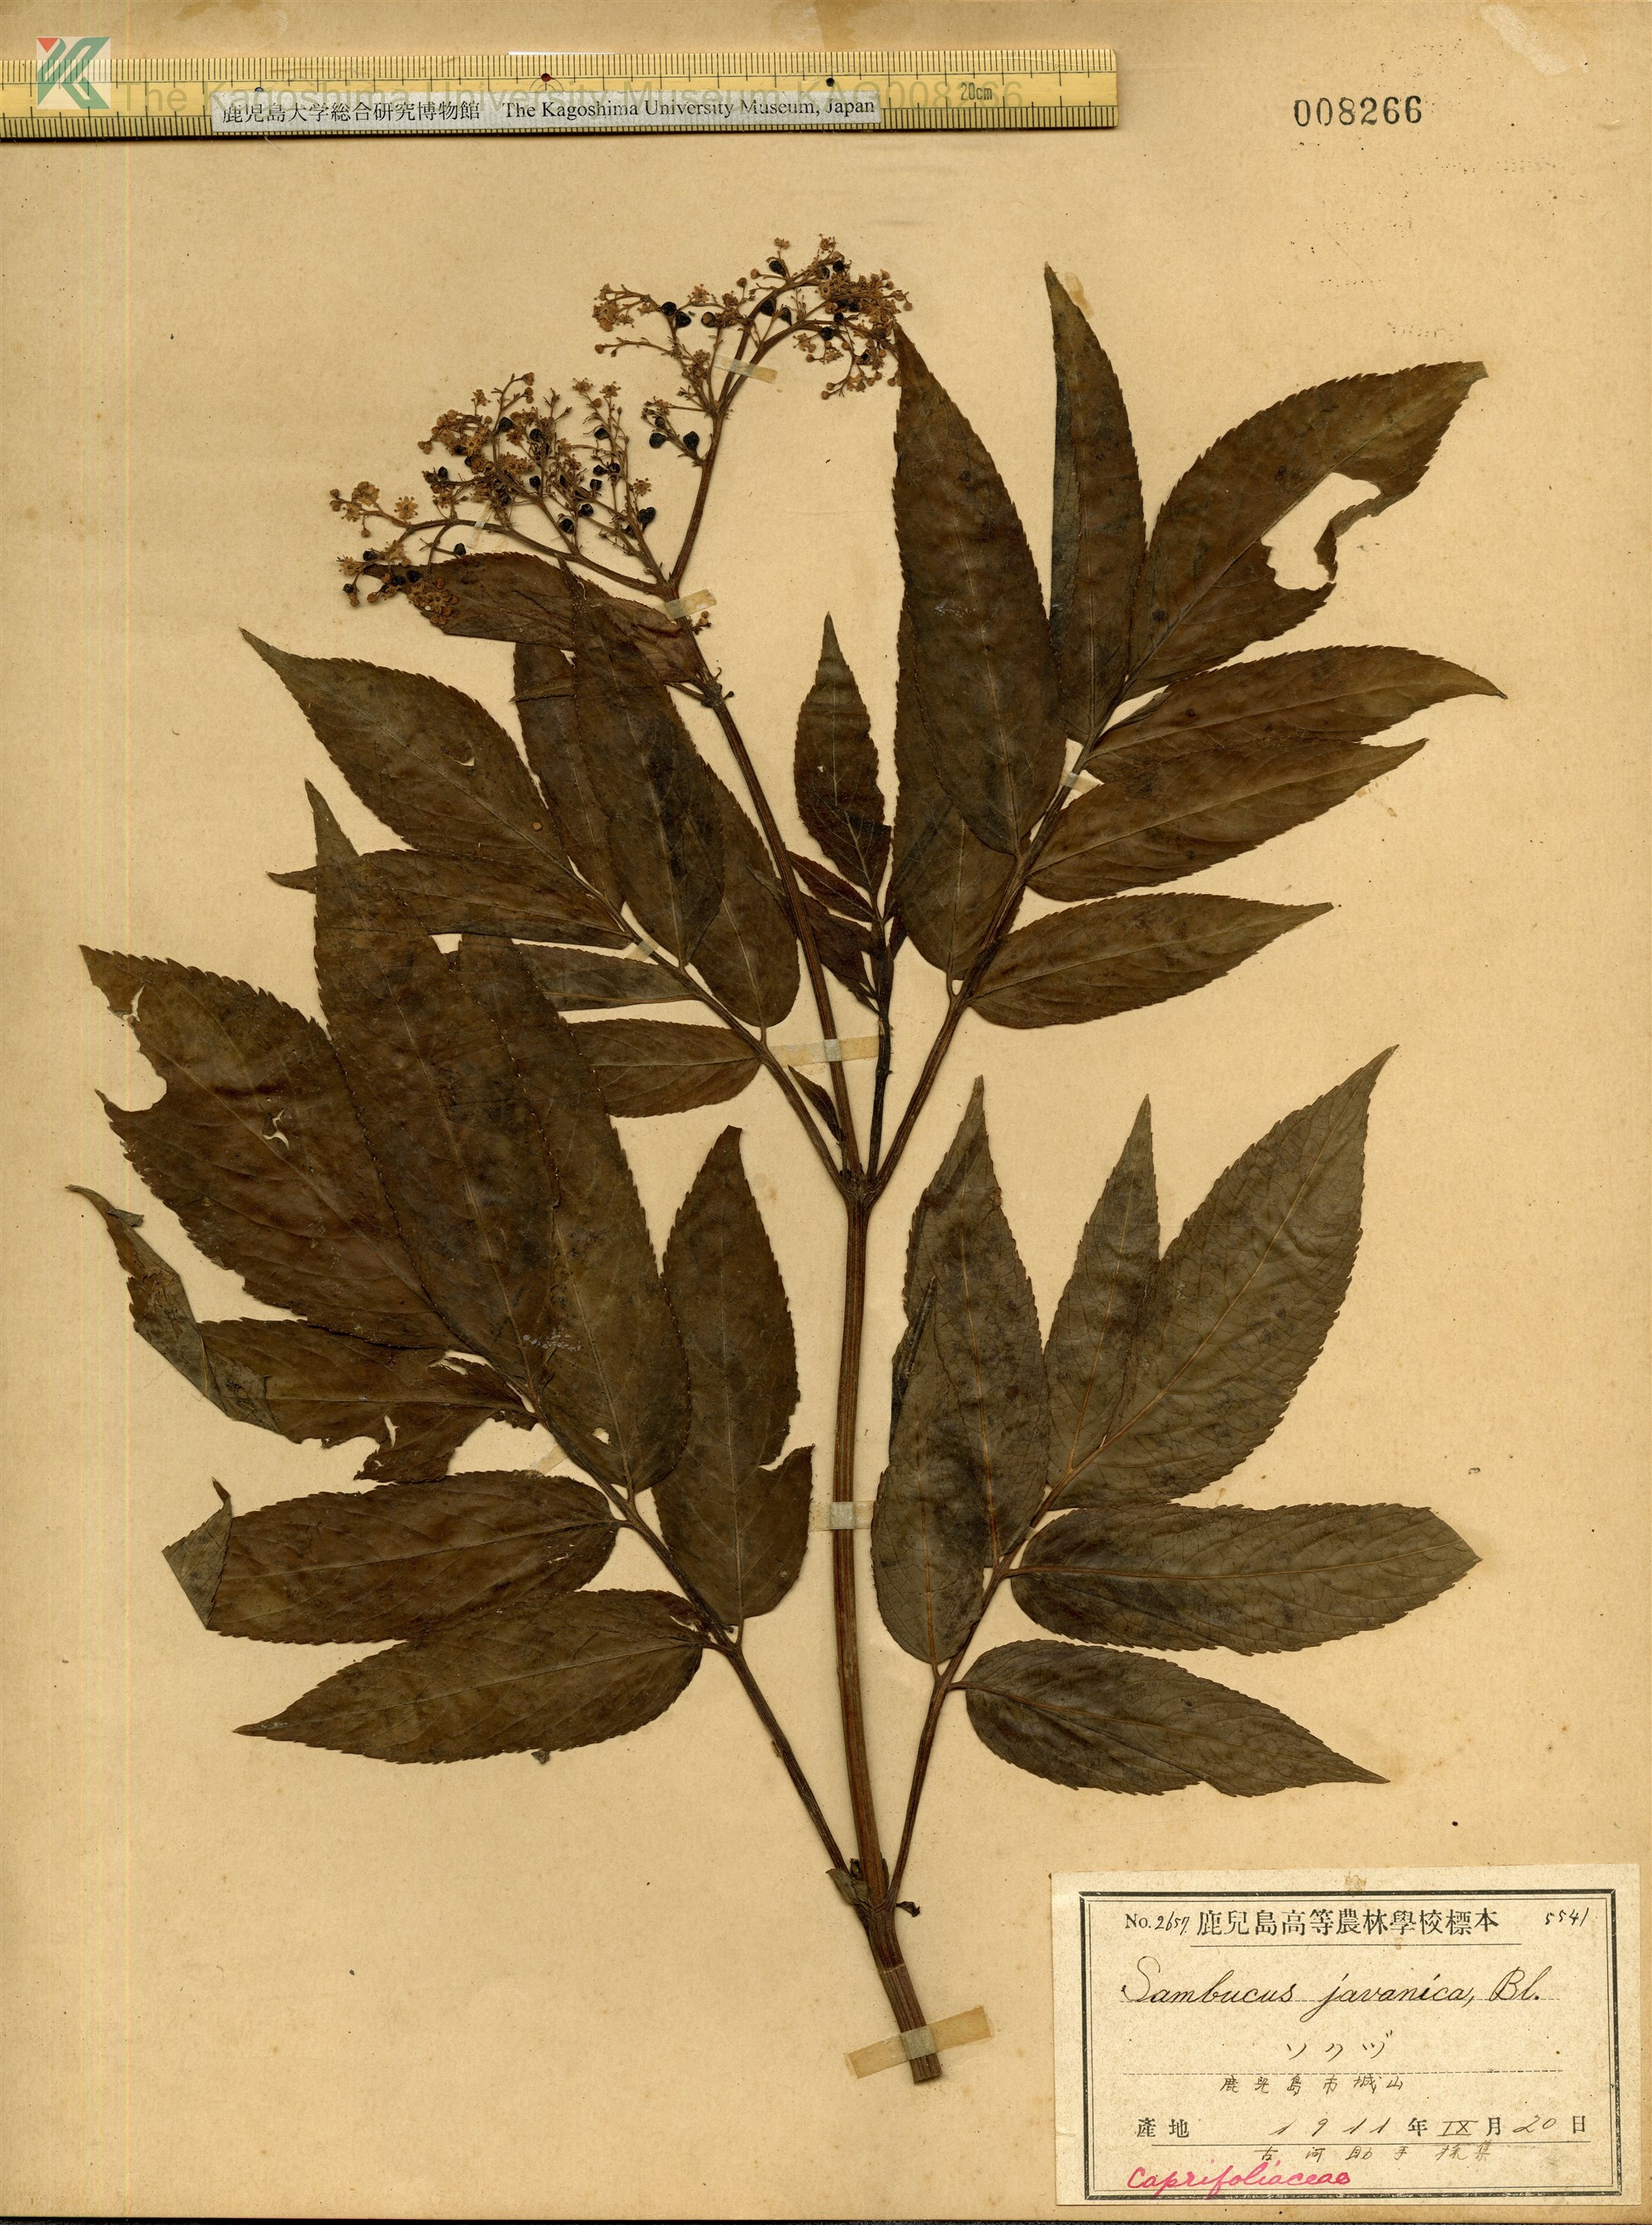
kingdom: Plantae
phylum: Tracheophyta
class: Magnoliopsida
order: Dipsacales
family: Viburnaceae
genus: Sambucus
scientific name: Sambucus javanica
